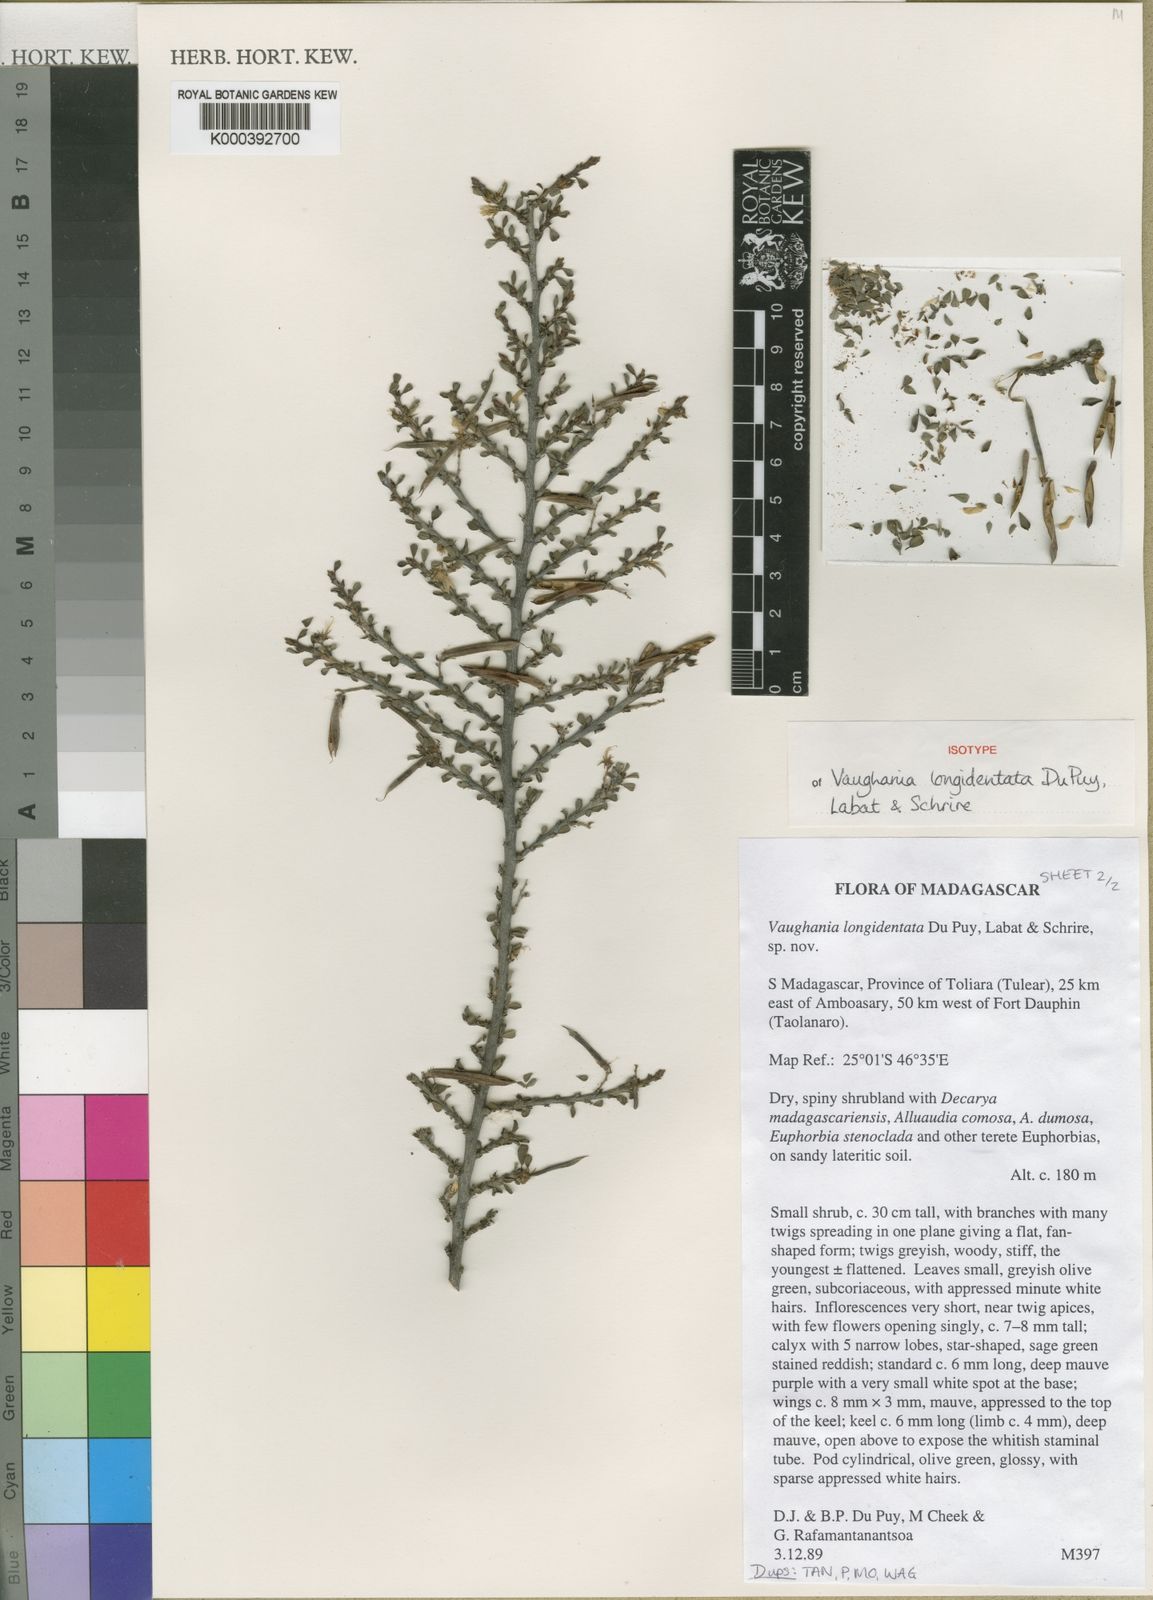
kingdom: Plantae
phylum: Tracheophyta
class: Magnoliopsida
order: Fabales
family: Fabaceae
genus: Indigofera
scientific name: Indigofera longidentata
